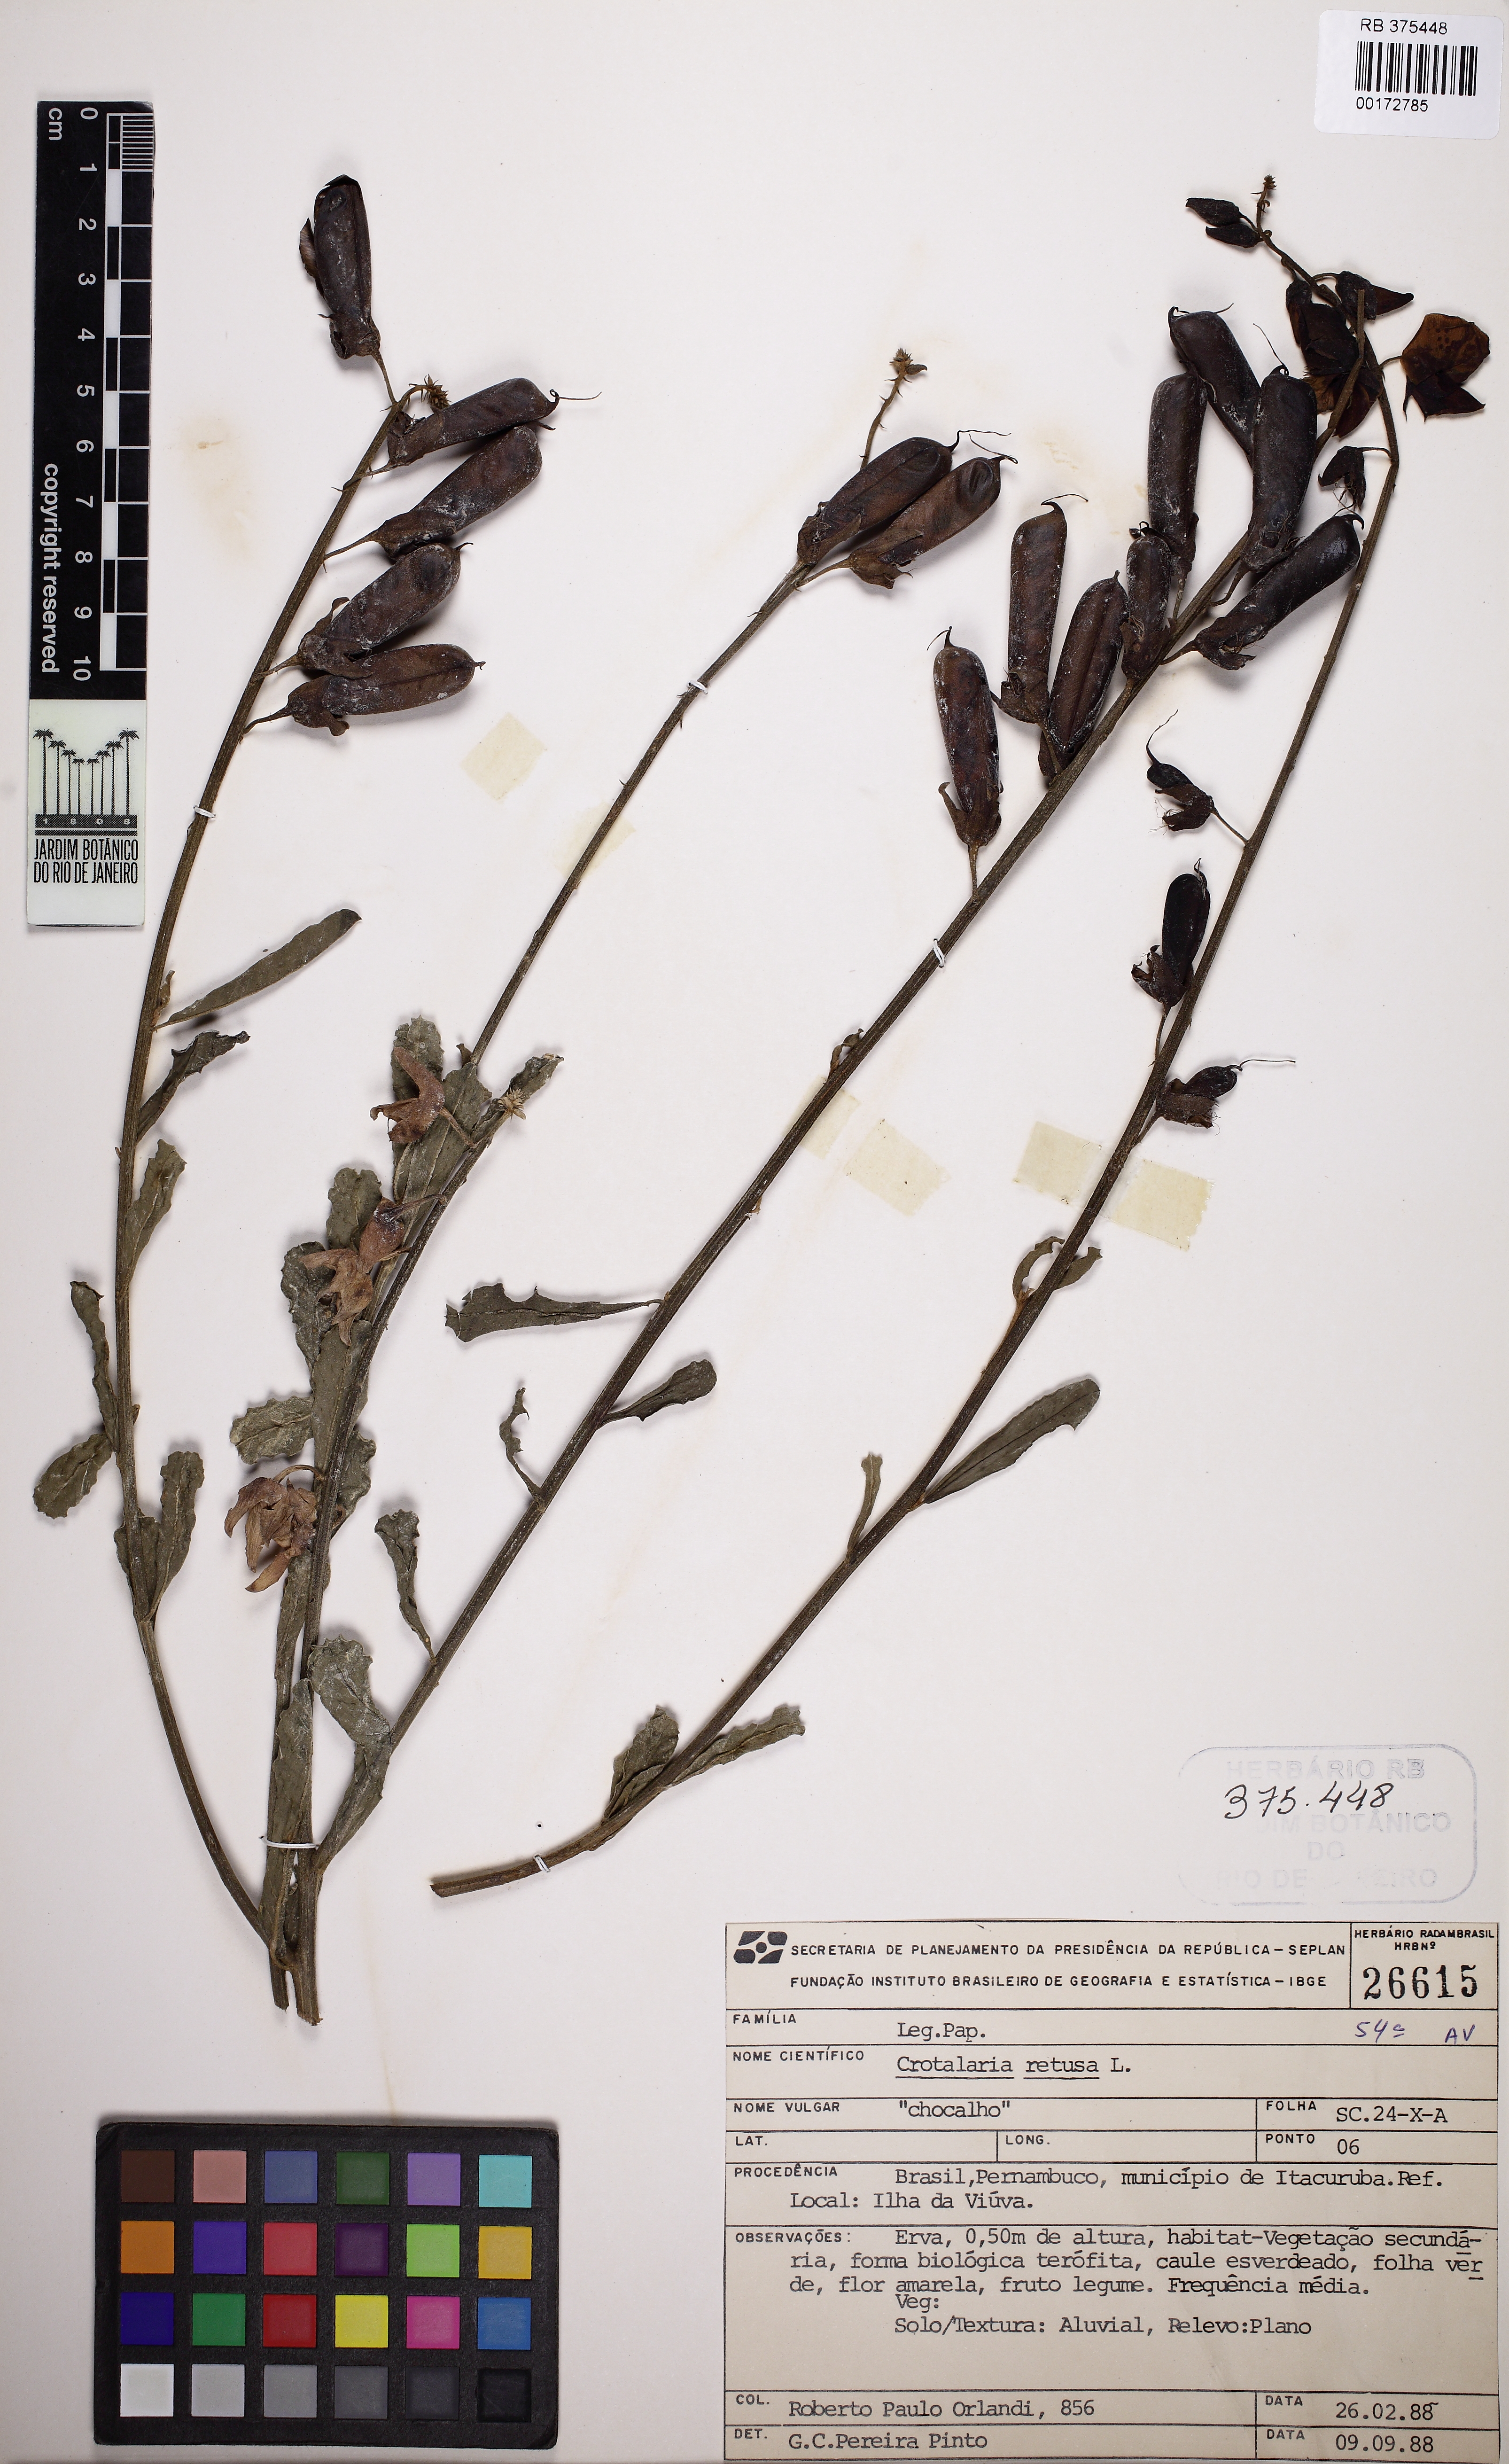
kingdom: Plantae
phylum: Tracheophyta
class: Magnoliopsida
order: Fabales
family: Fabaceae
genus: Crotalaria
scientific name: Crotalaria retusa
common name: Rattleweed
